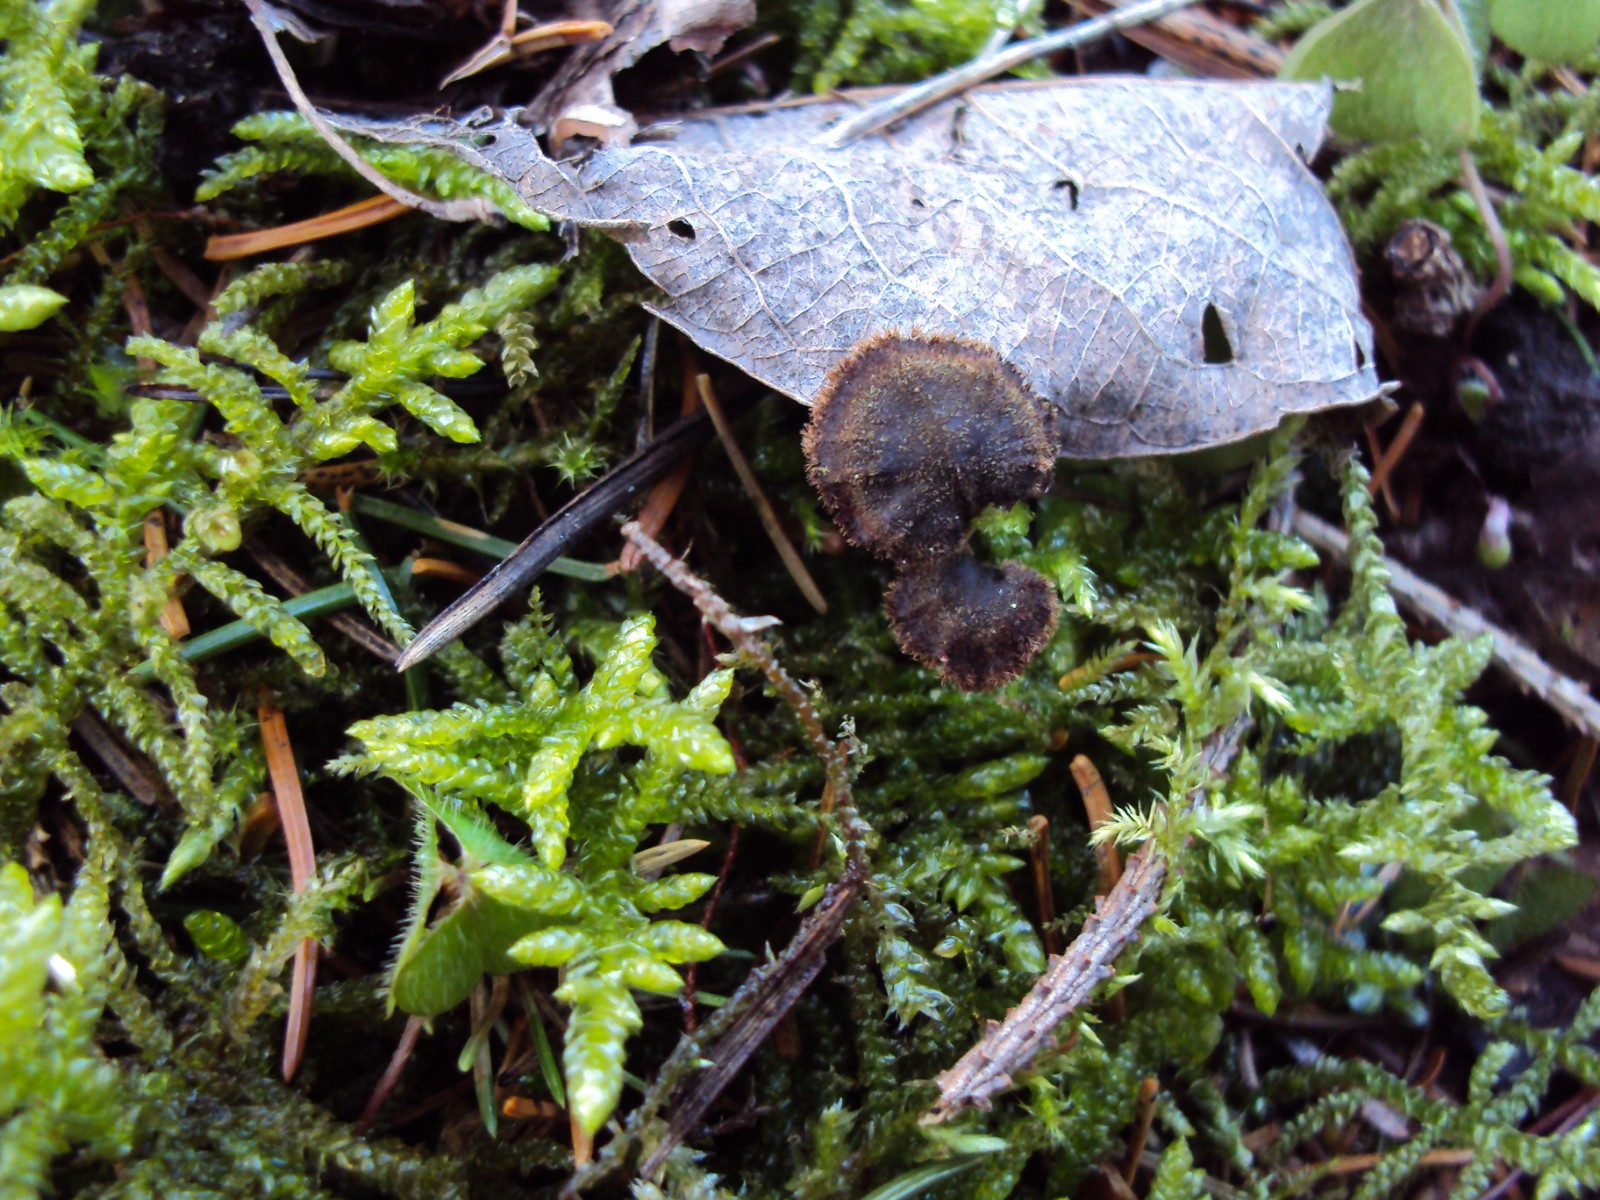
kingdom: Fungi
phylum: Basidiomycota
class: Agaricomycetes
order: Russulales
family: Auriscalpiaceae
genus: Auriscalpium
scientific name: Auriscalpium vulgare
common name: koglepigsvamp
